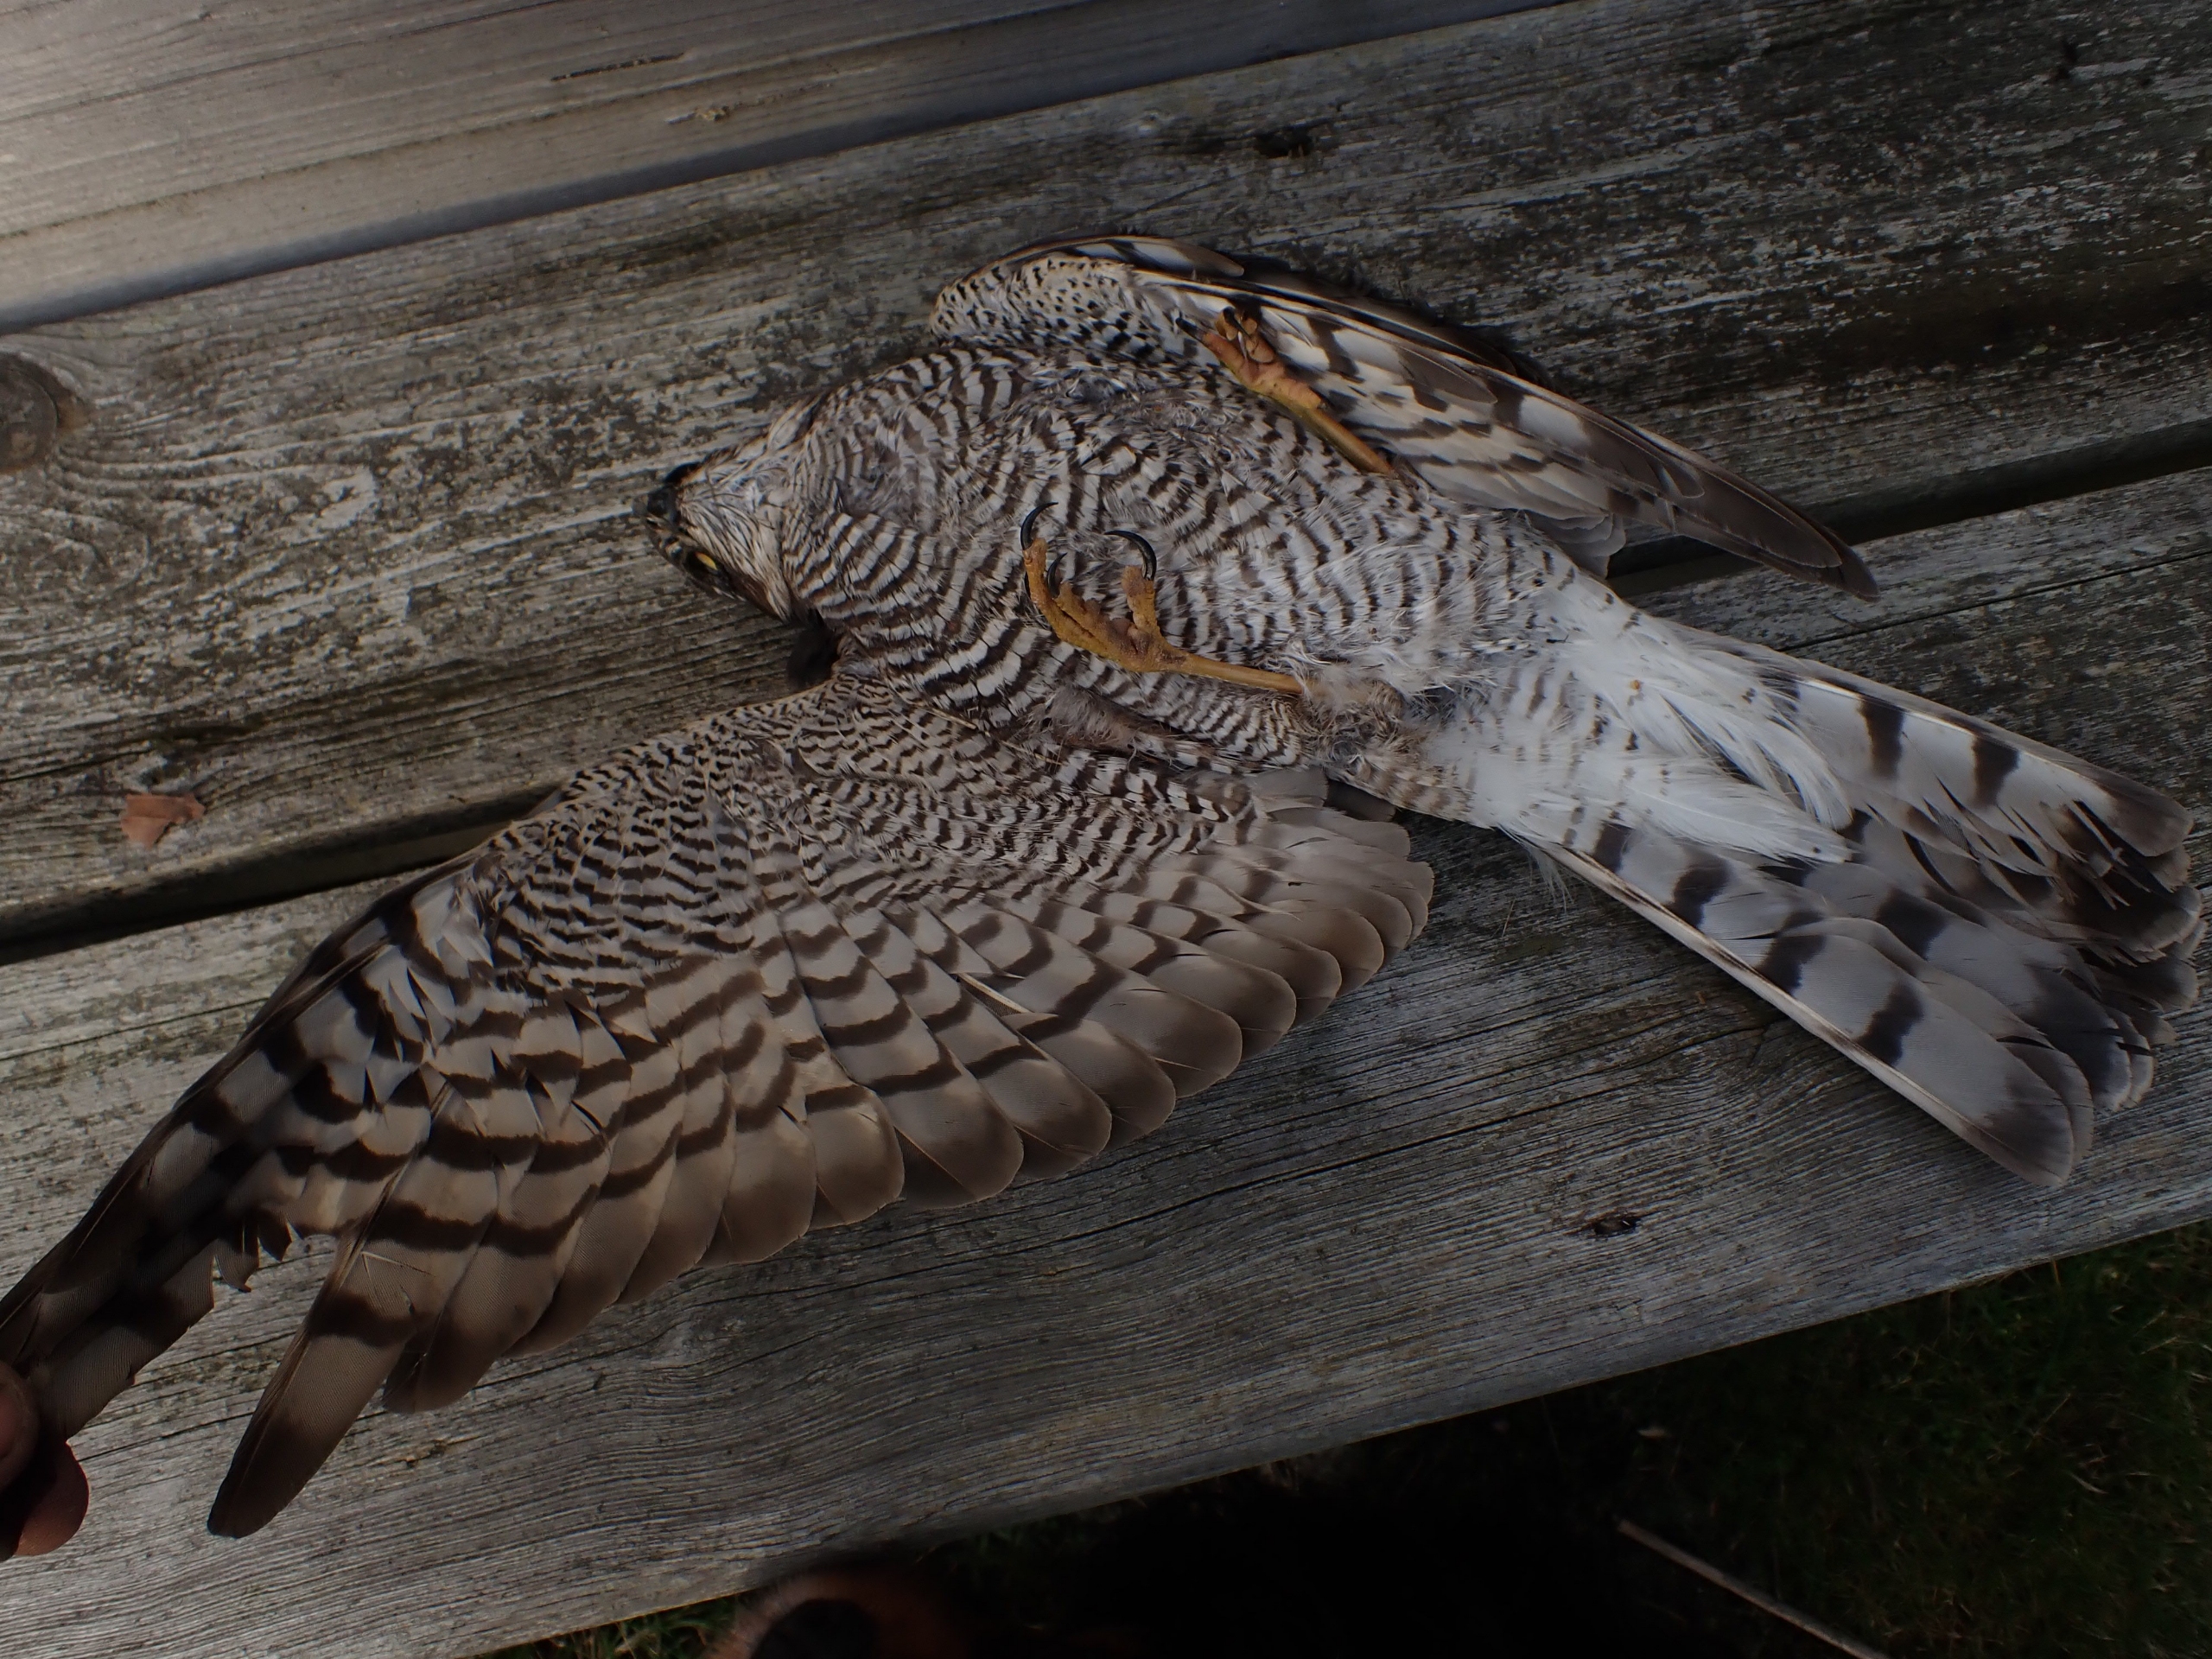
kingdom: Animalia
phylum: Chordata
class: Aves
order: Accipitriformes
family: Accipitridae
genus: Accipiter
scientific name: Accipiter nisus
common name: Spurvehøg
